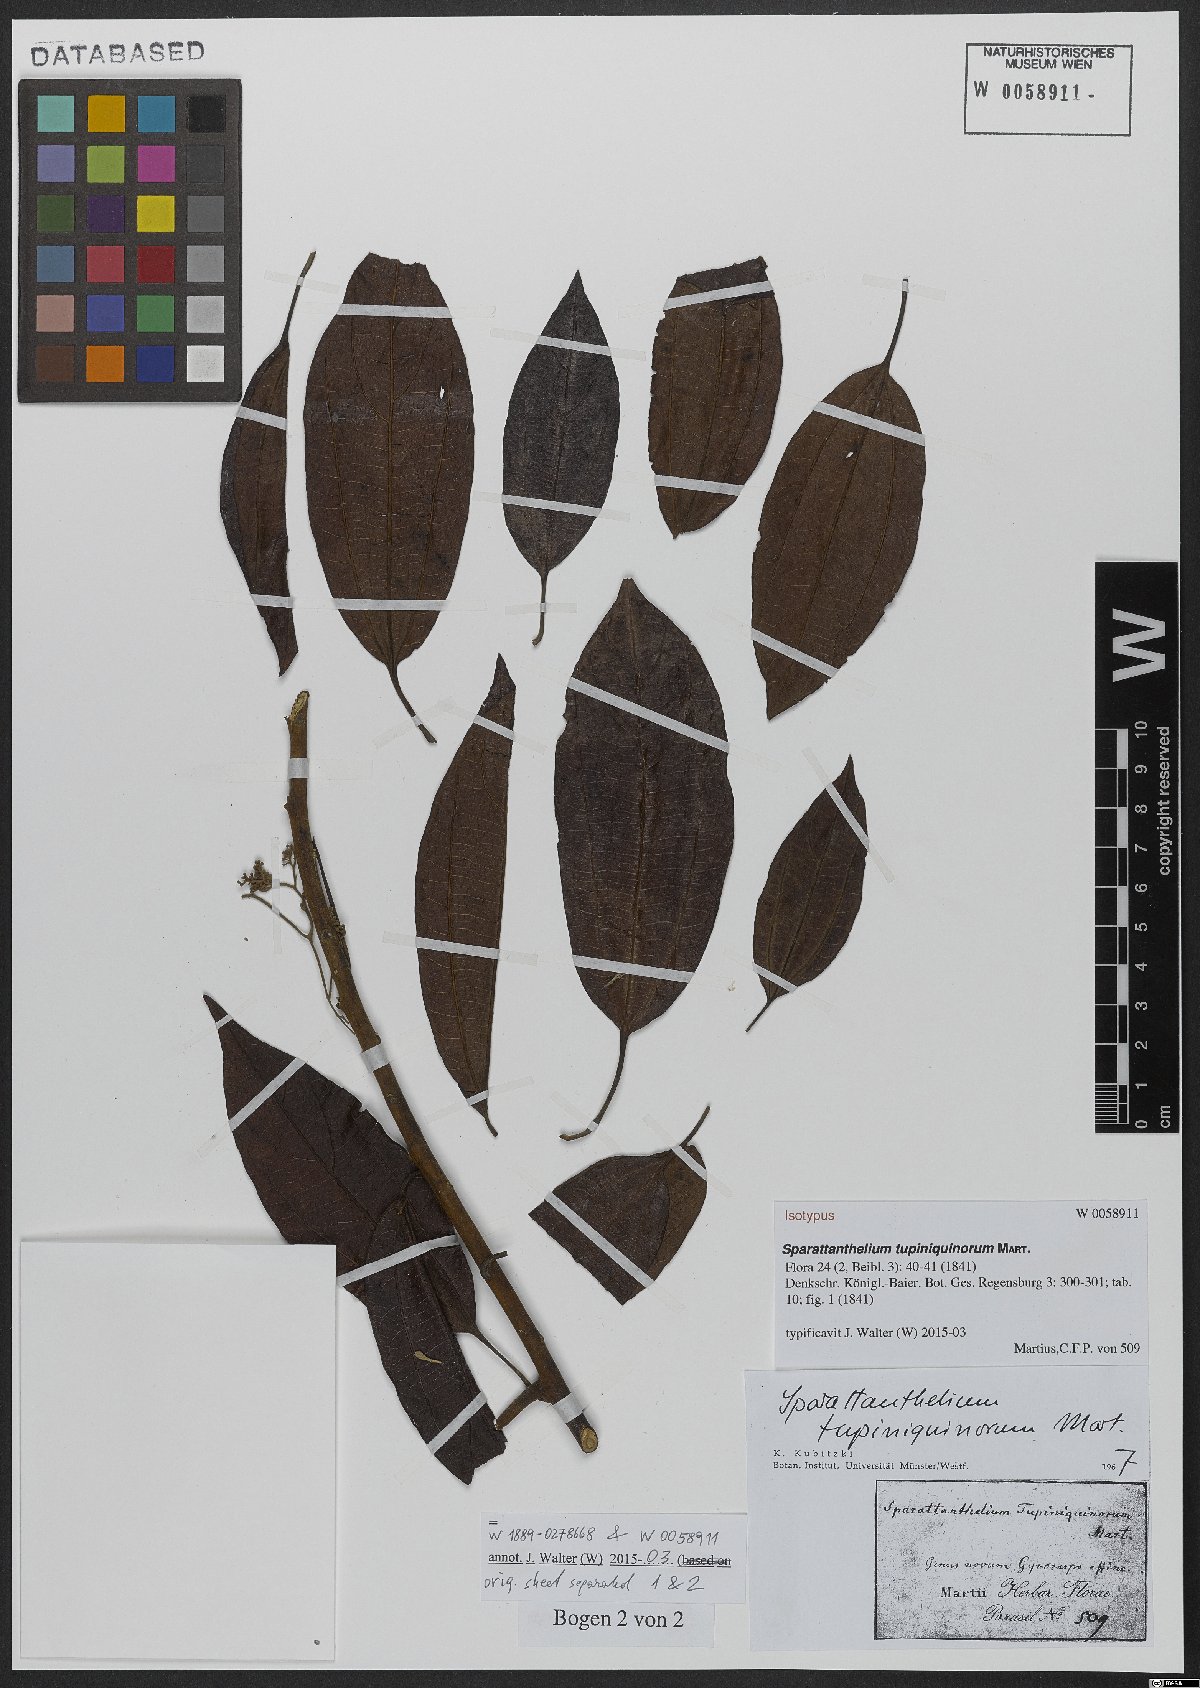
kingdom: Plantae
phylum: Tracheophyta
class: Magnoliopsida
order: Laurales
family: Hernandiaceae
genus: Sparattanthelium
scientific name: Sparattanthelium tupiniquinorum
